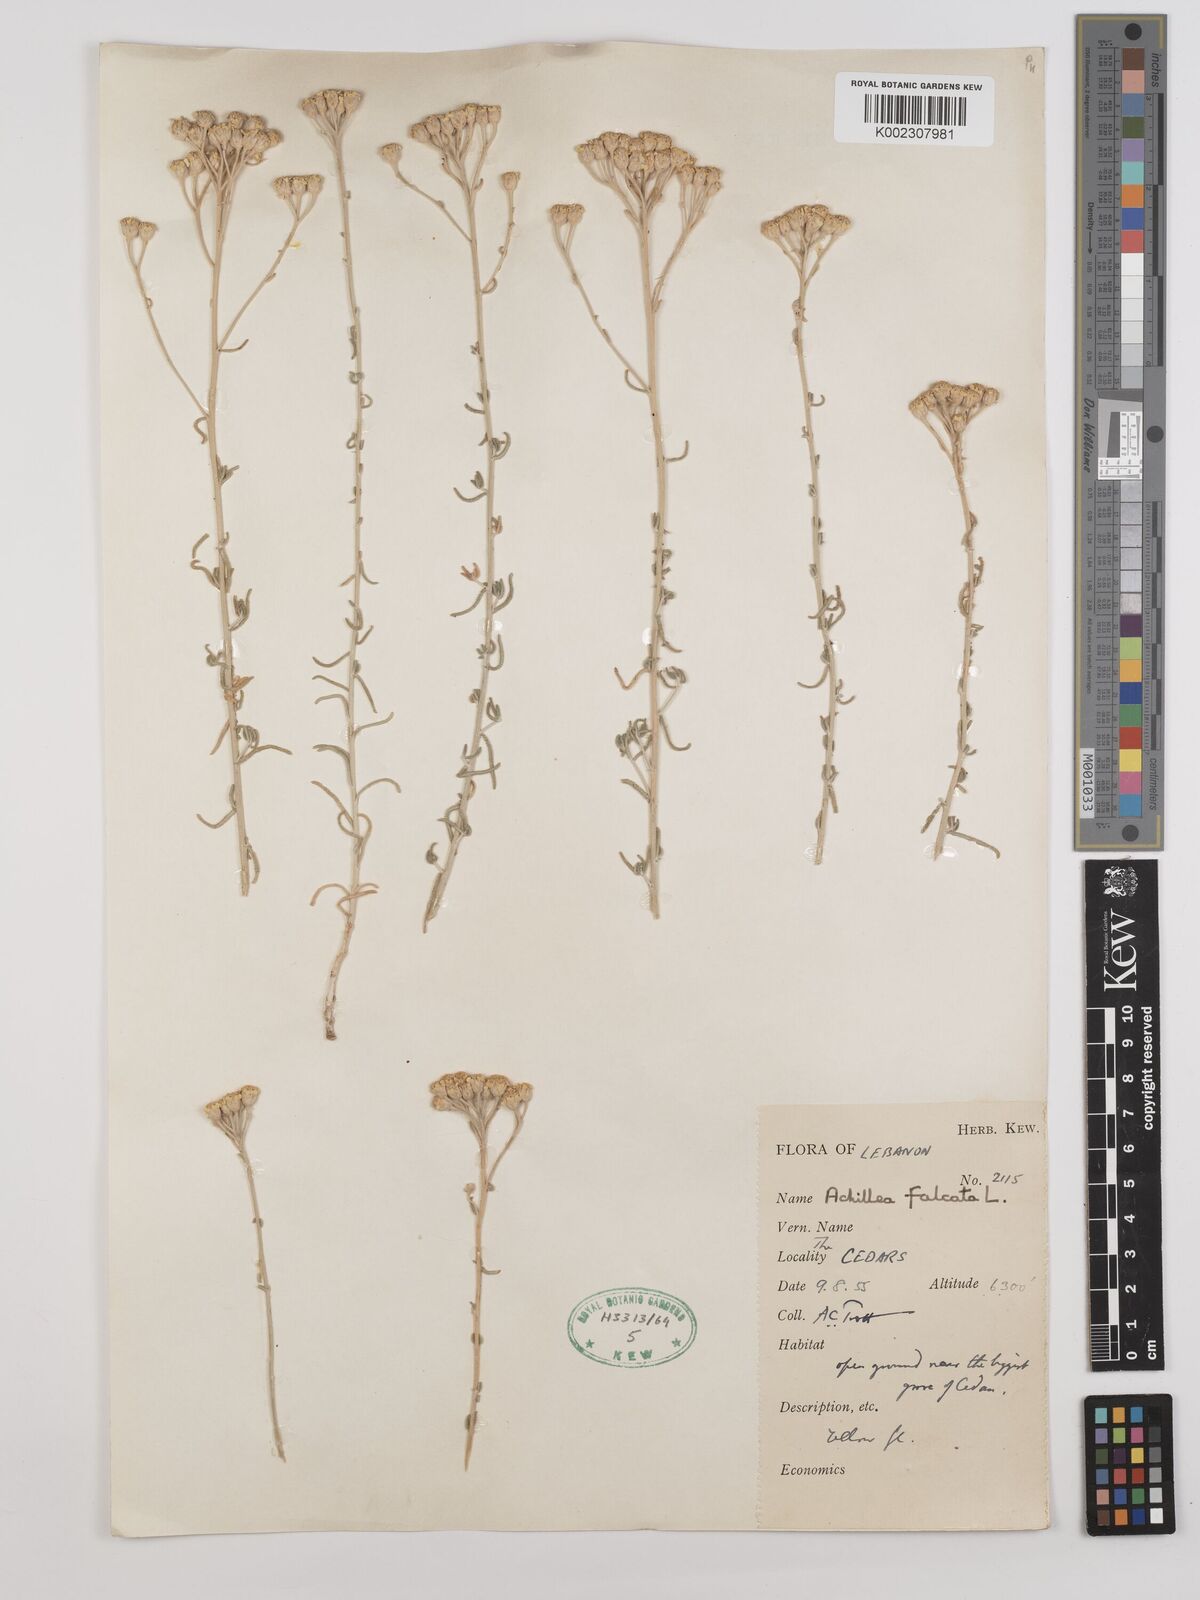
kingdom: Plantae
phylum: Tracheophyta
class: Magnoliopsida
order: Asterales
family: Asteraceae
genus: Achillea
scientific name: Achillea falcata
